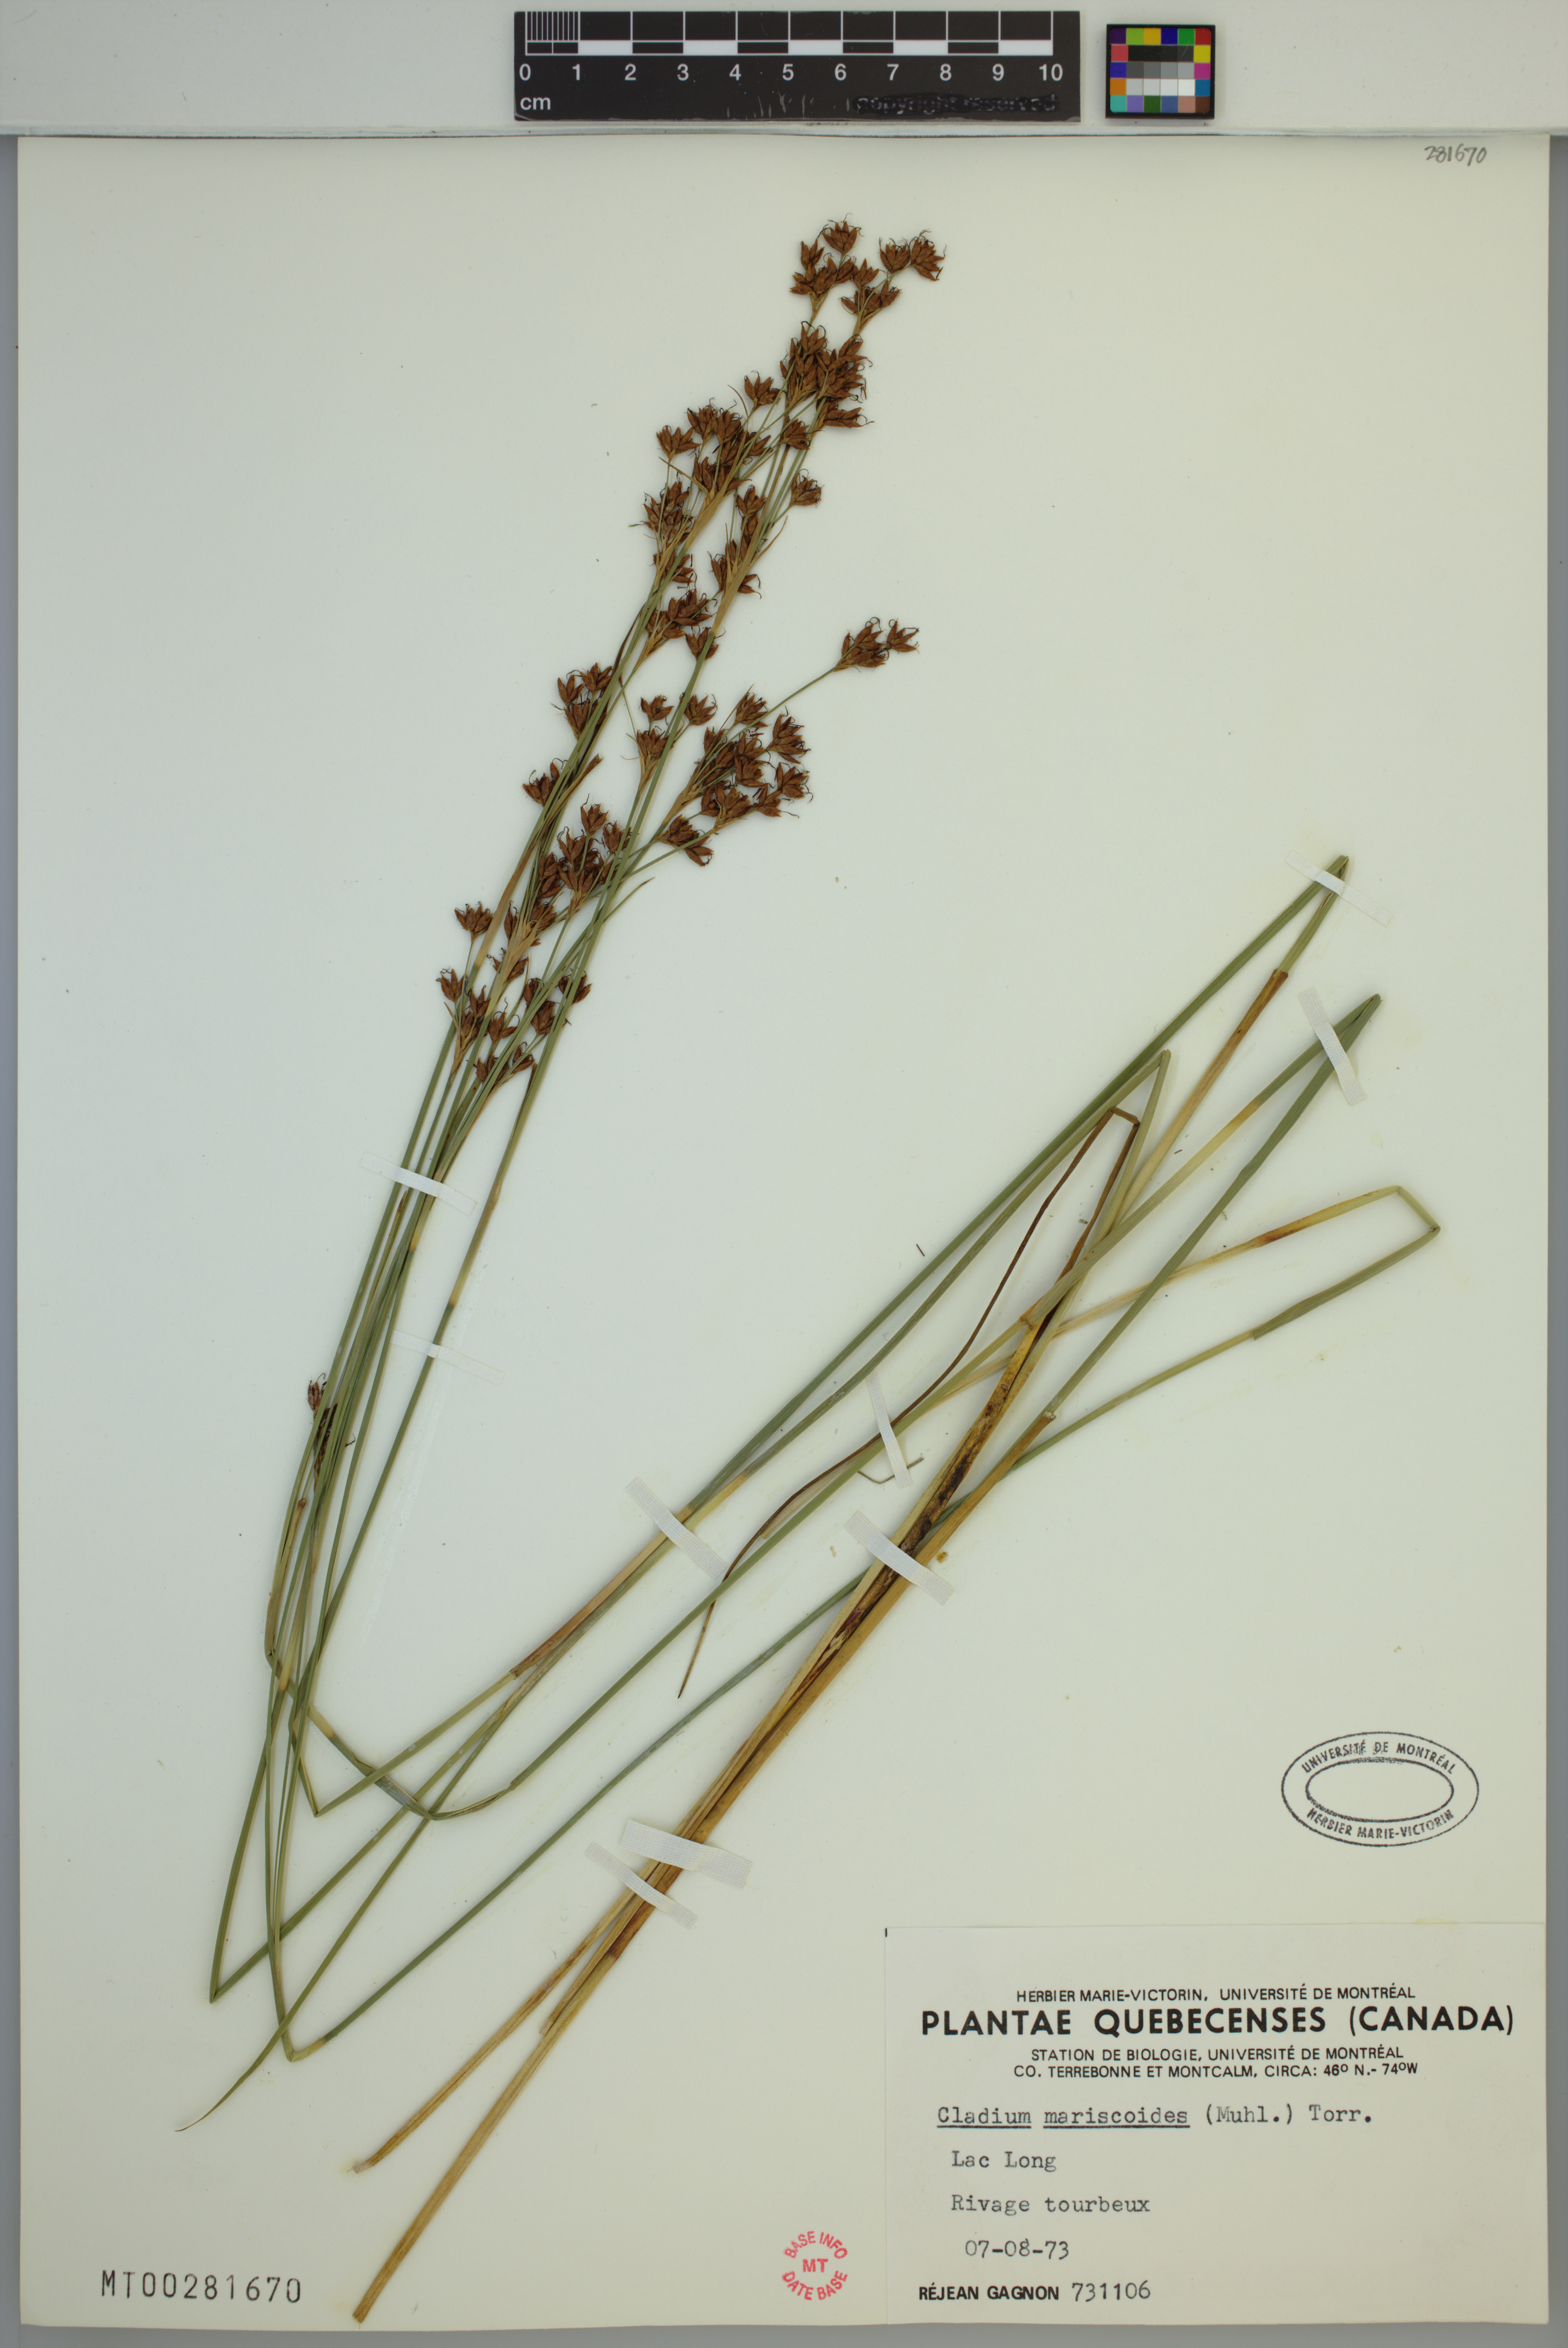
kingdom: Plantae
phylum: Tracheophyta
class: Liliopsida
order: Poales
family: Cyperaceae
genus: Cladium
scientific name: Cladium mariscoides
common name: Smooth sawgrass
